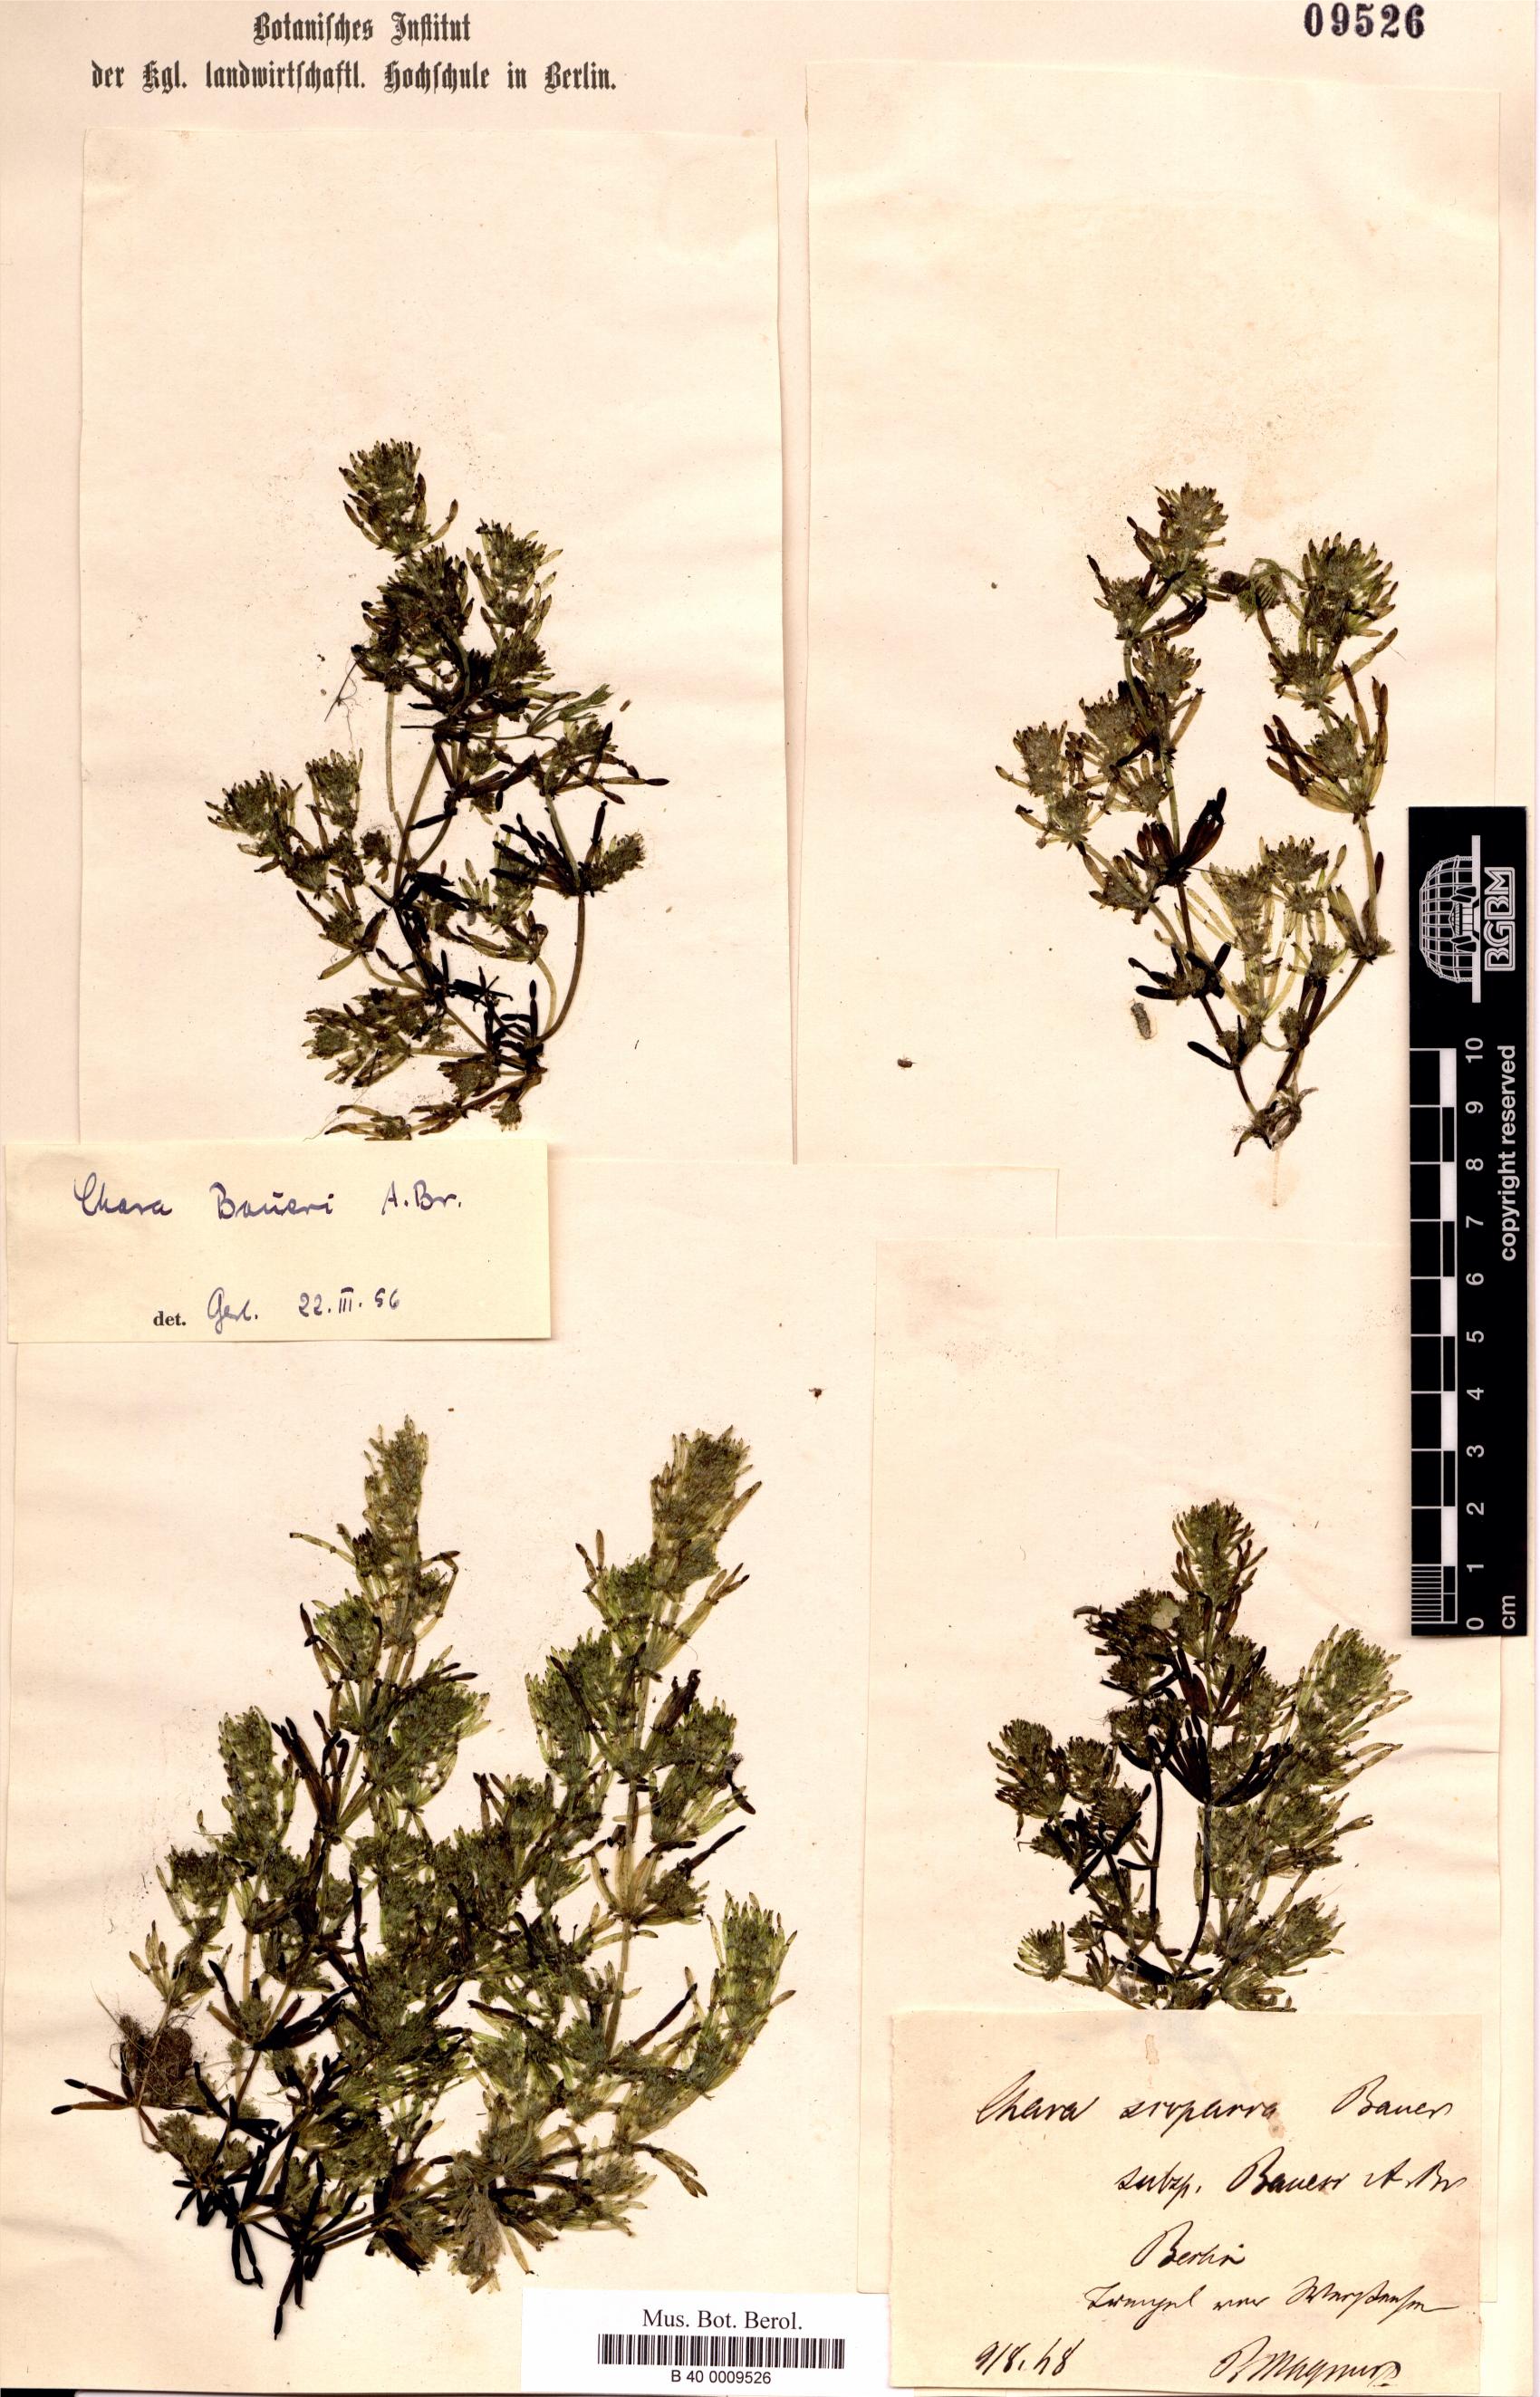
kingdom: Plantae
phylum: Charophyta
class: Charophyceae
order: Charales
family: Characeae
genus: Chara
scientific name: Chara baueri
